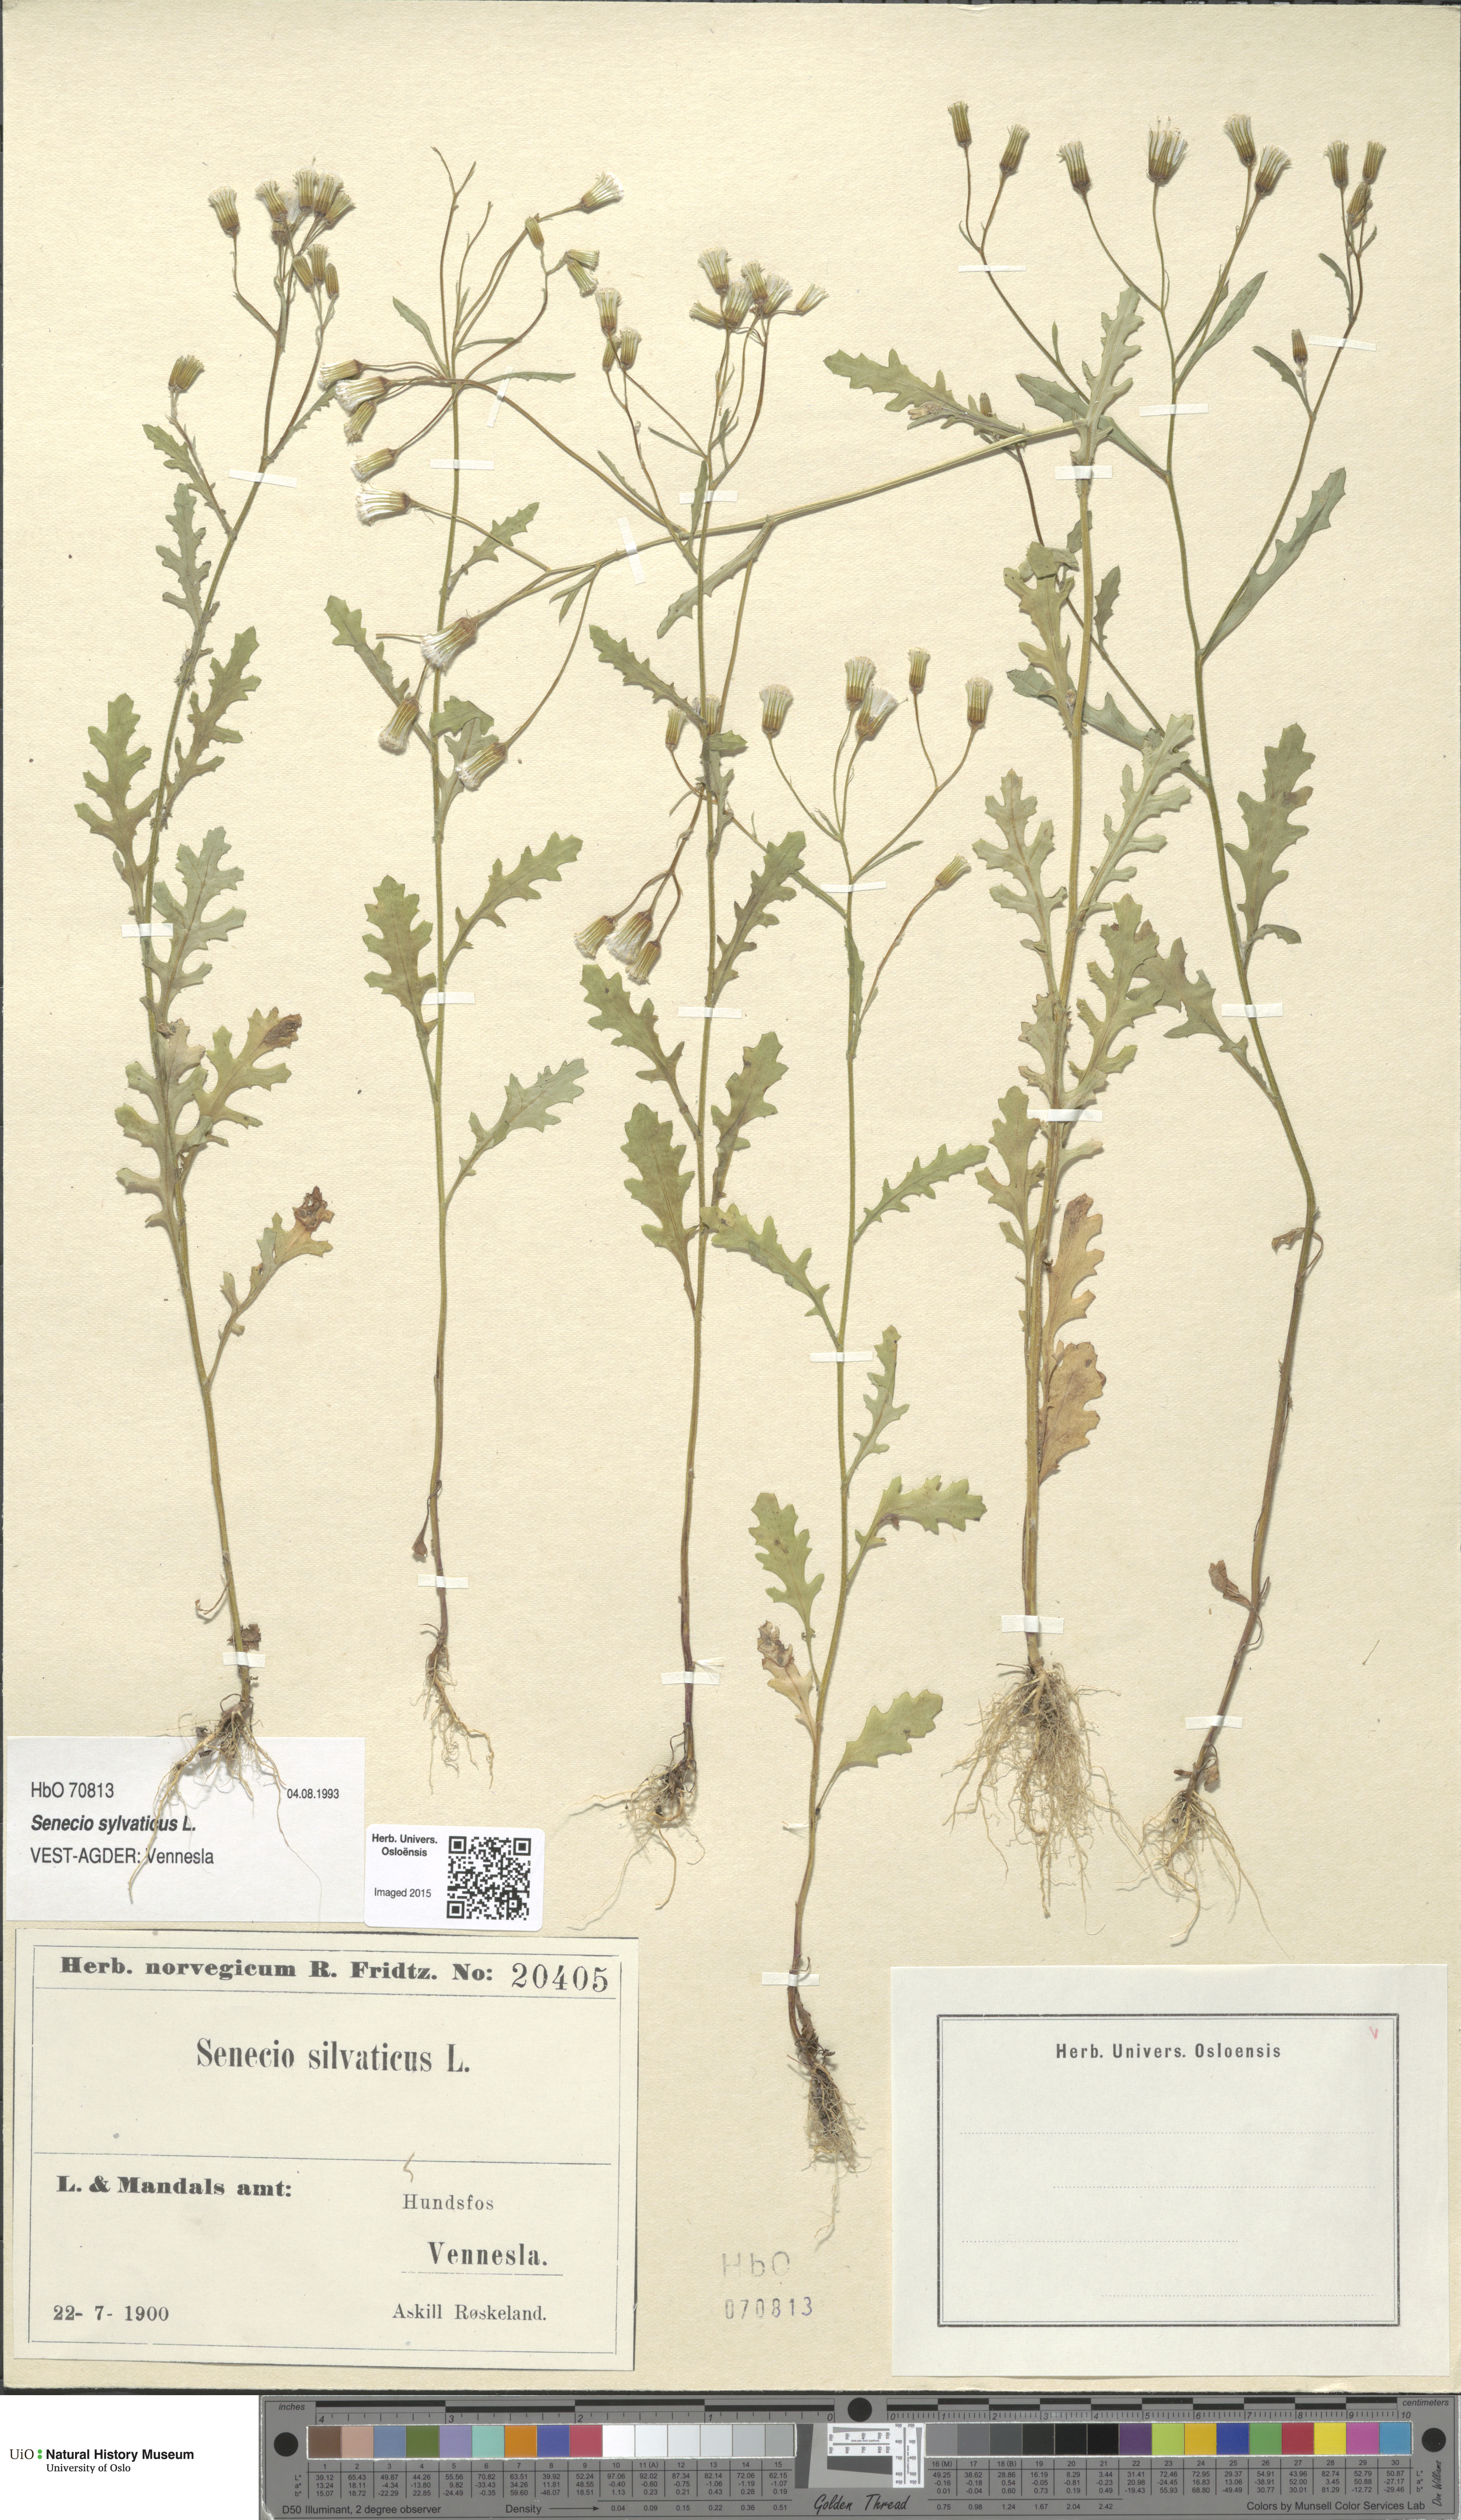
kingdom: Plantae
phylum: Tracheophyta
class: Magnoliopsida
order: Asterales
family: Asteraceae
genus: Senecio
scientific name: Senecio sylvaticus
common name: Woodland ragwort
